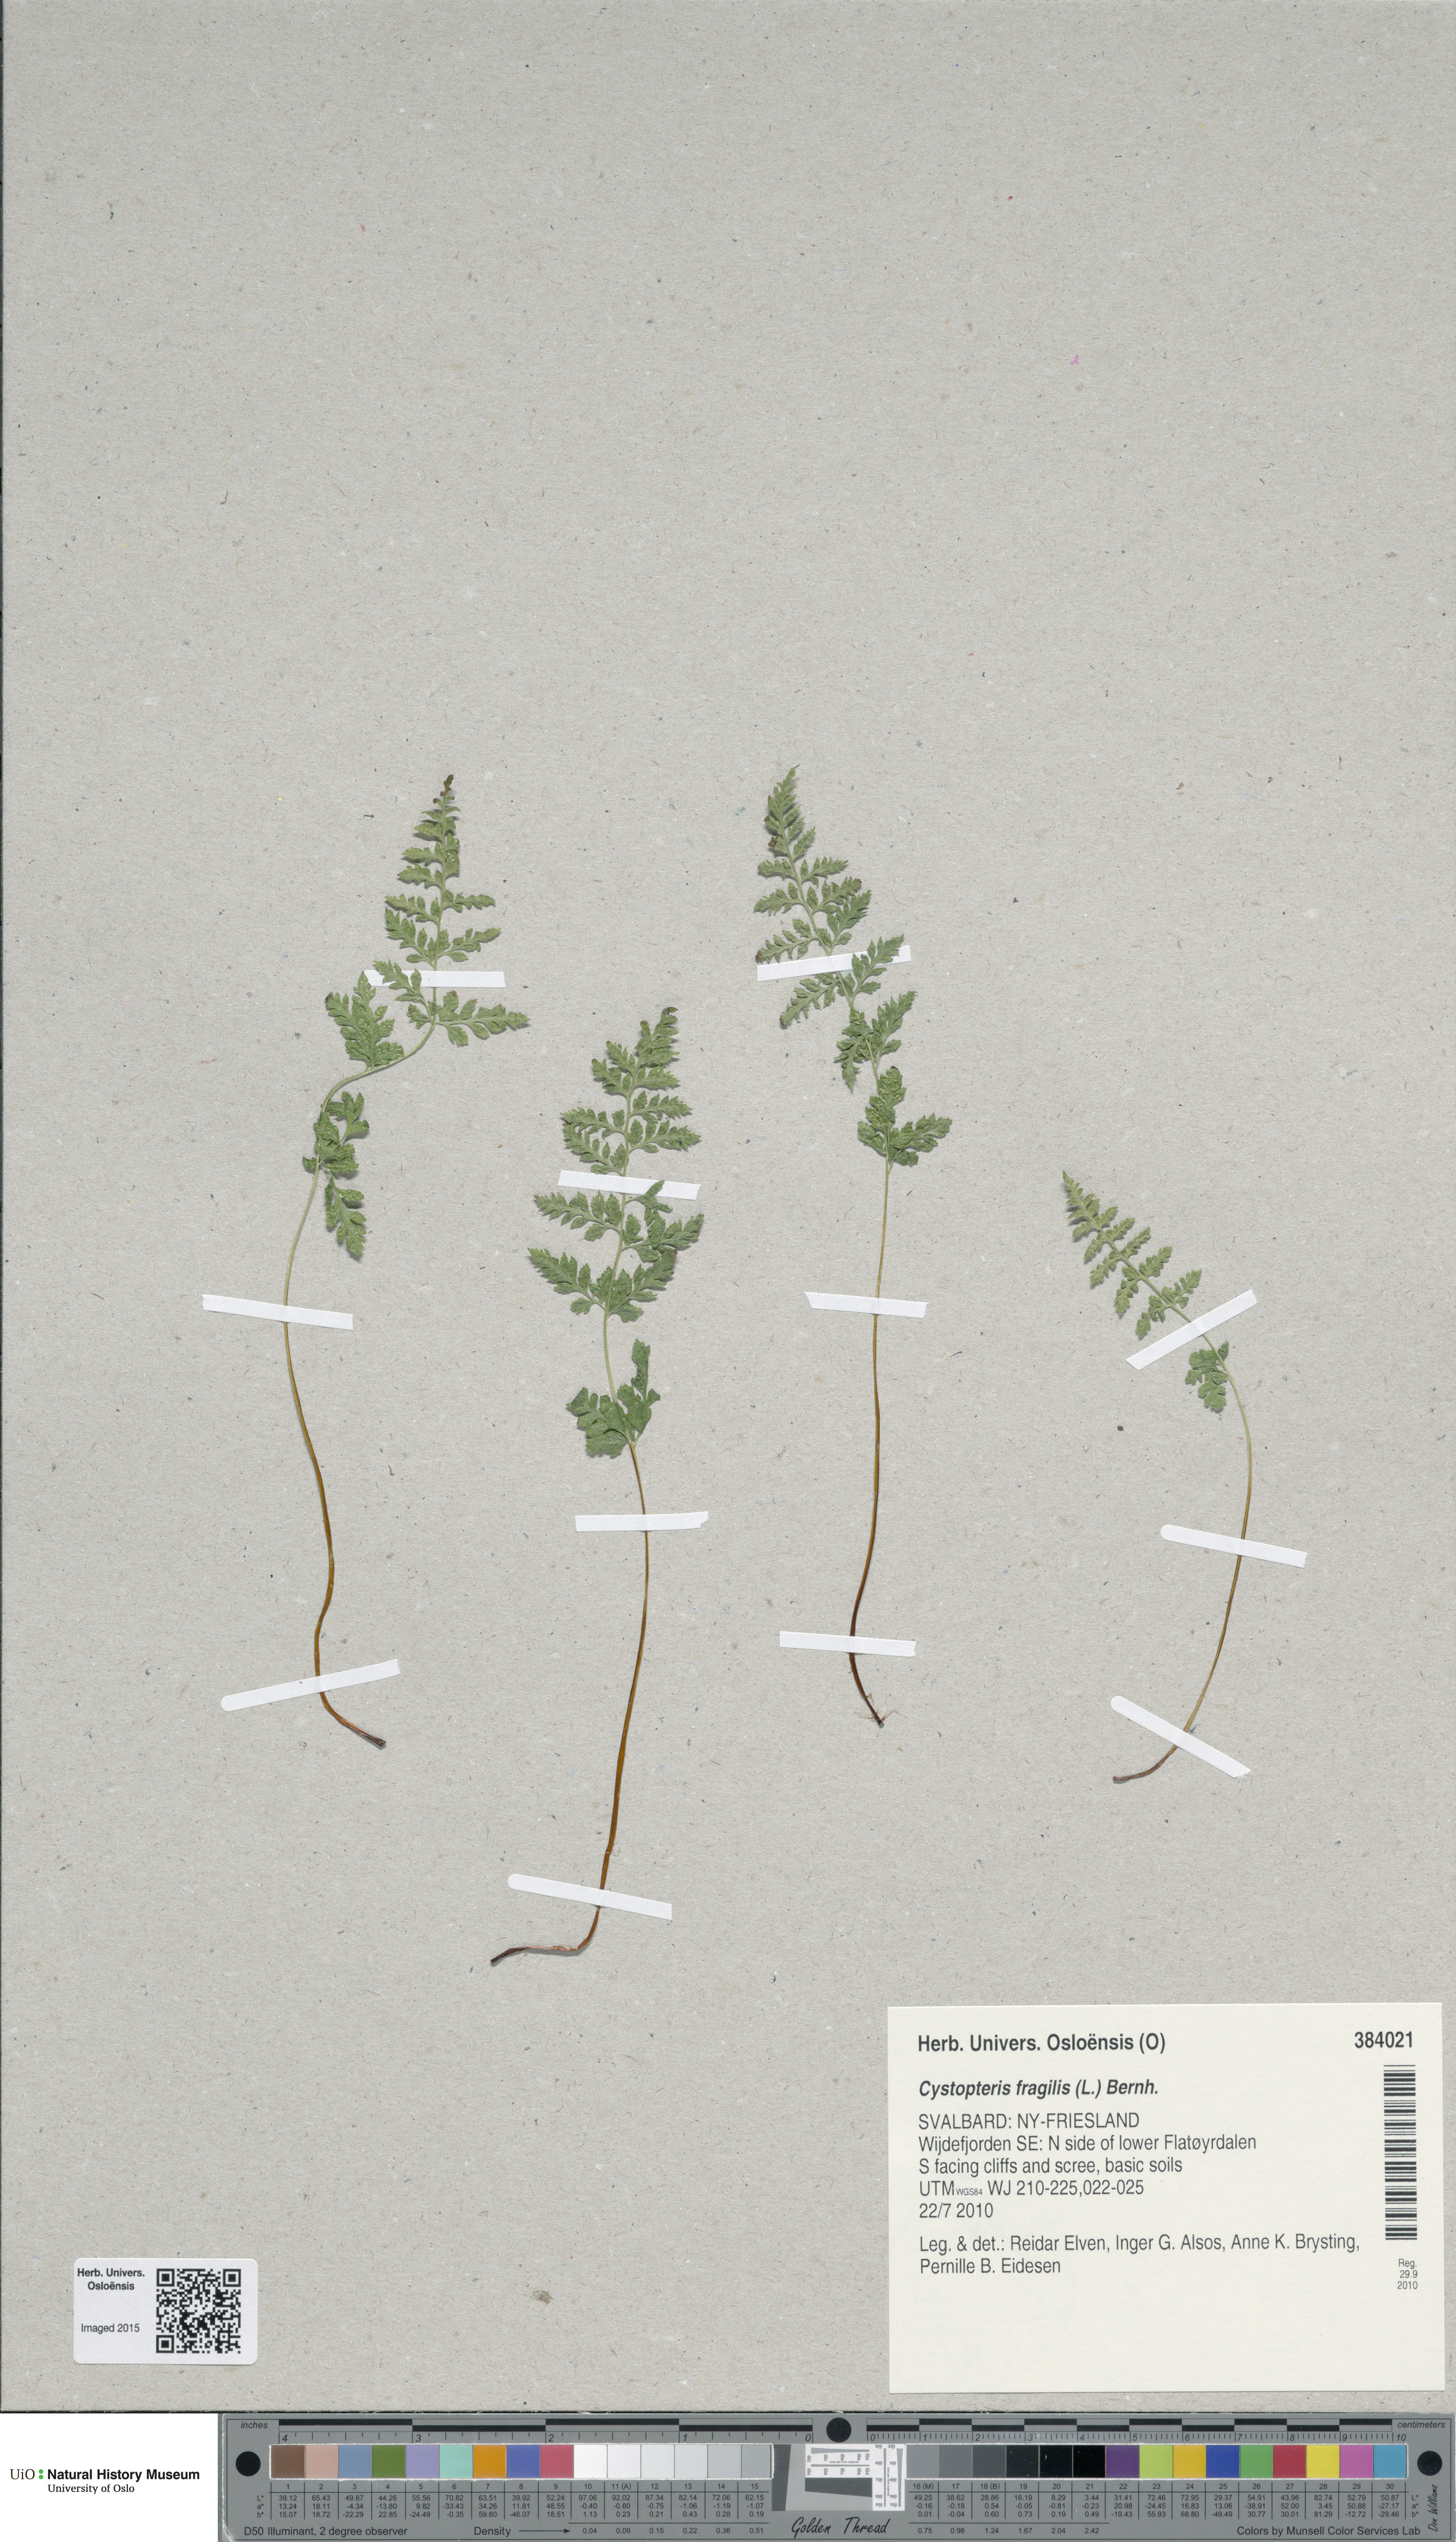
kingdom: Plantae
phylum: Tracheophyta
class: Polypodiopsida
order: Polypodiales
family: Cystopteridaceae
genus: Cystopteris
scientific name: Cystopteris fragilis
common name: Brittle bladder fern
